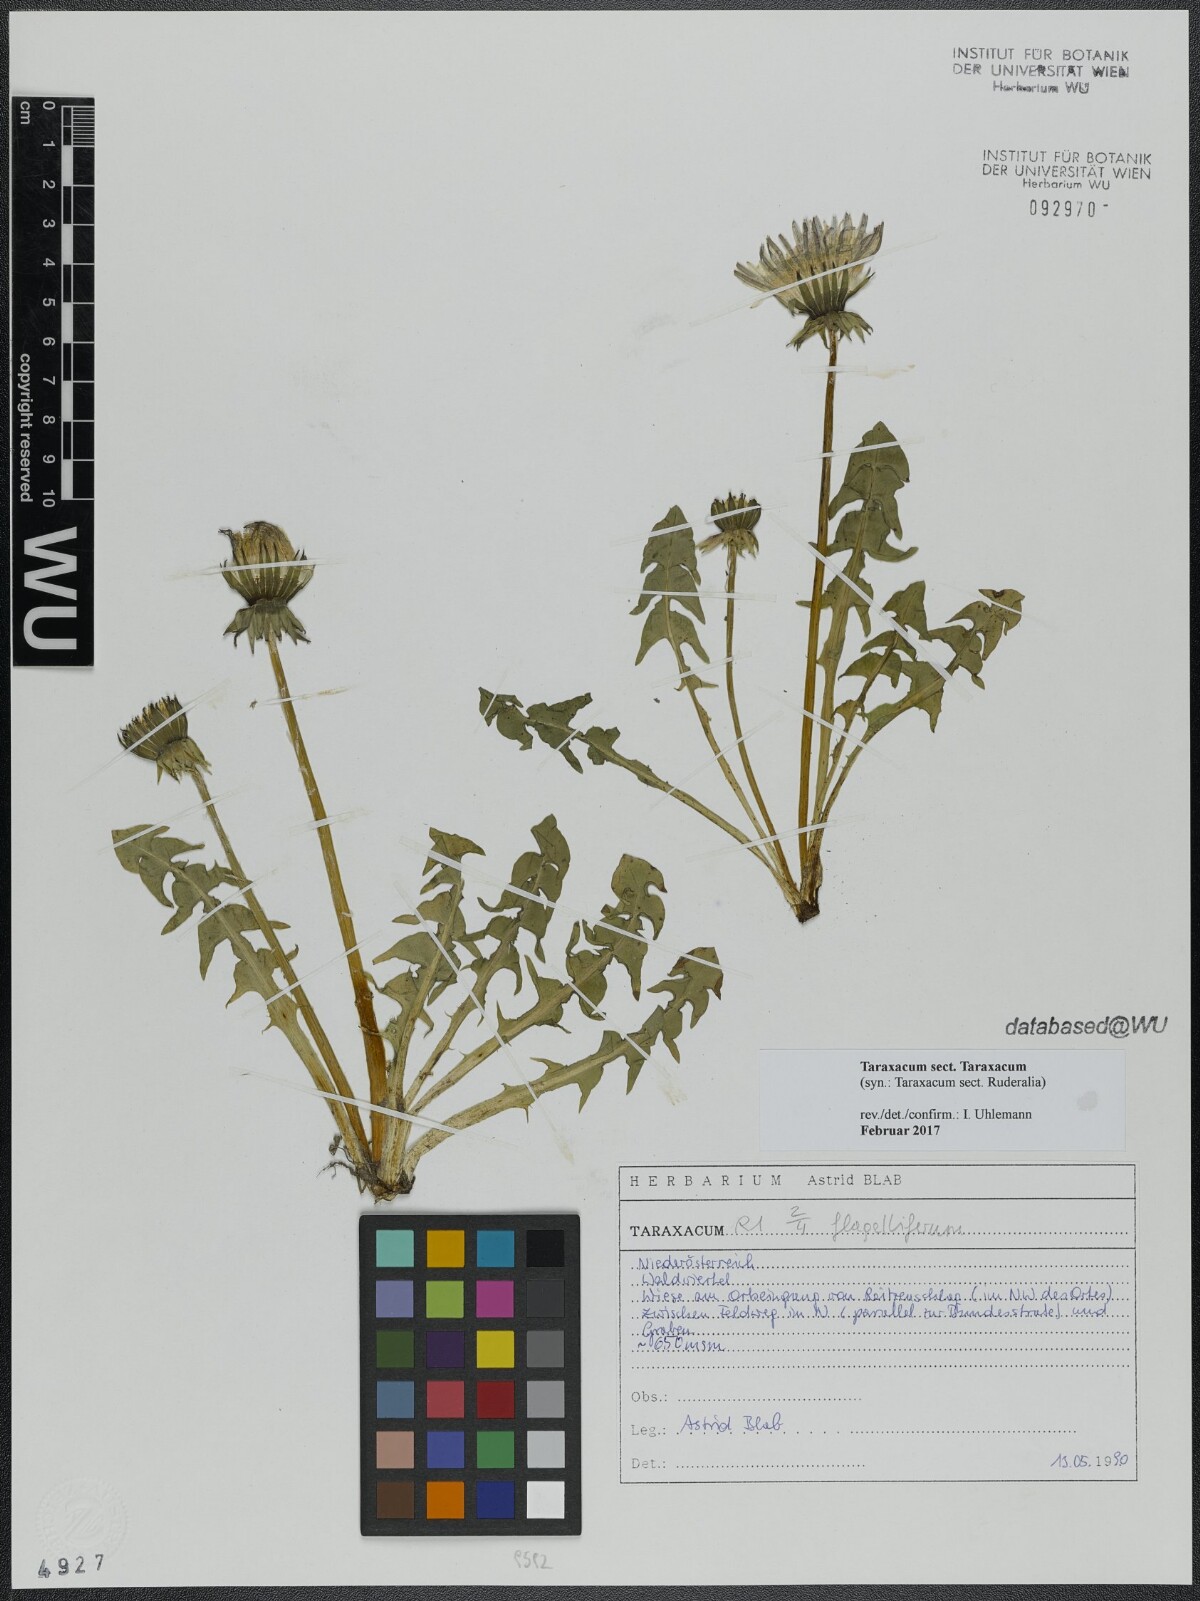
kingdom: Plantae
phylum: Tracheophyta
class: Magnoliopsida
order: Asterales
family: Asteraceae
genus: Taraxacum
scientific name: Taraxacum
